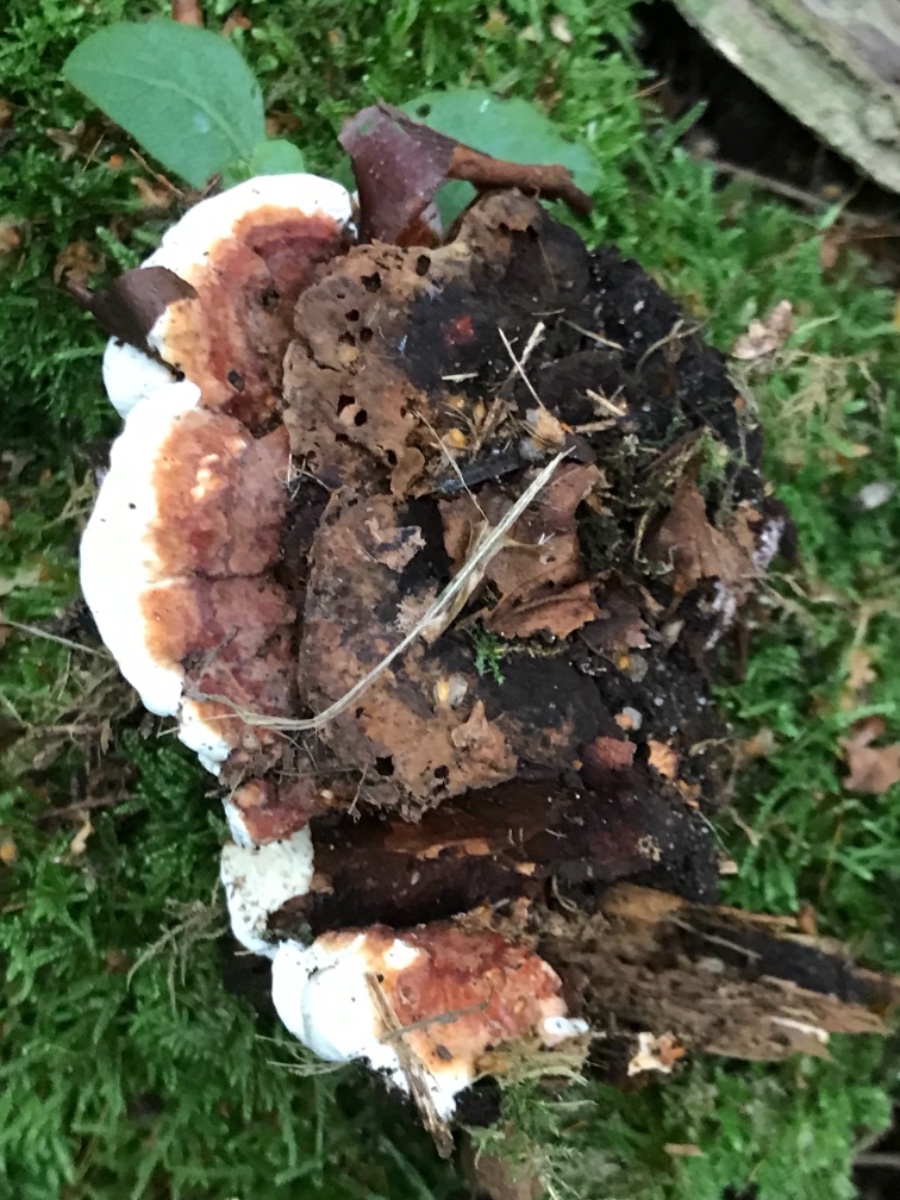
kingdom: Fungi
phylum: Basidiomycota
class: Agaricomycetes
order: Russulales
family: Bondarzewiaceae
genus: Heterobasidion
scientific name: Heterobasidion annosum
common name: almindelig rodfordærver
